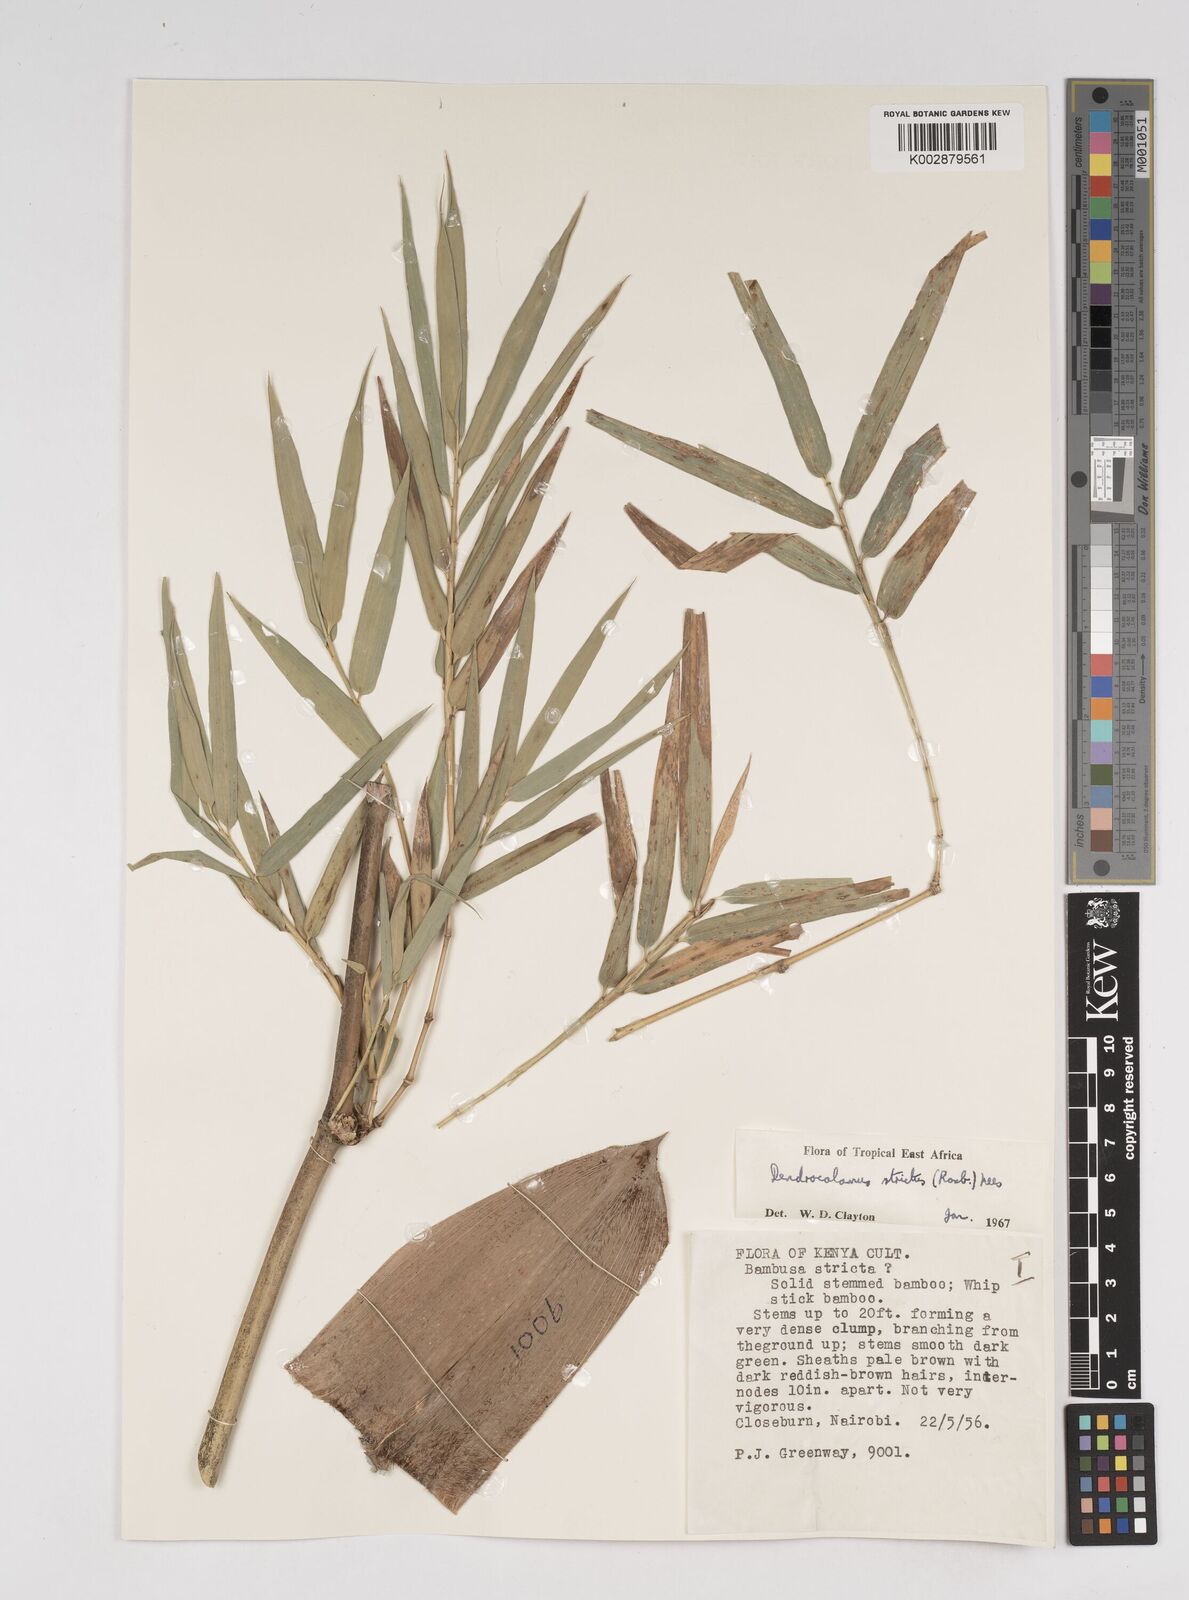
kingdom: Plantae
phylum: Tracheophyta
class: Liliopsida
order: Poales
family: Poaceae
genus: Dendrocalamus
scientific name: Dendrocalamus strictus
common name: Male bamboo
